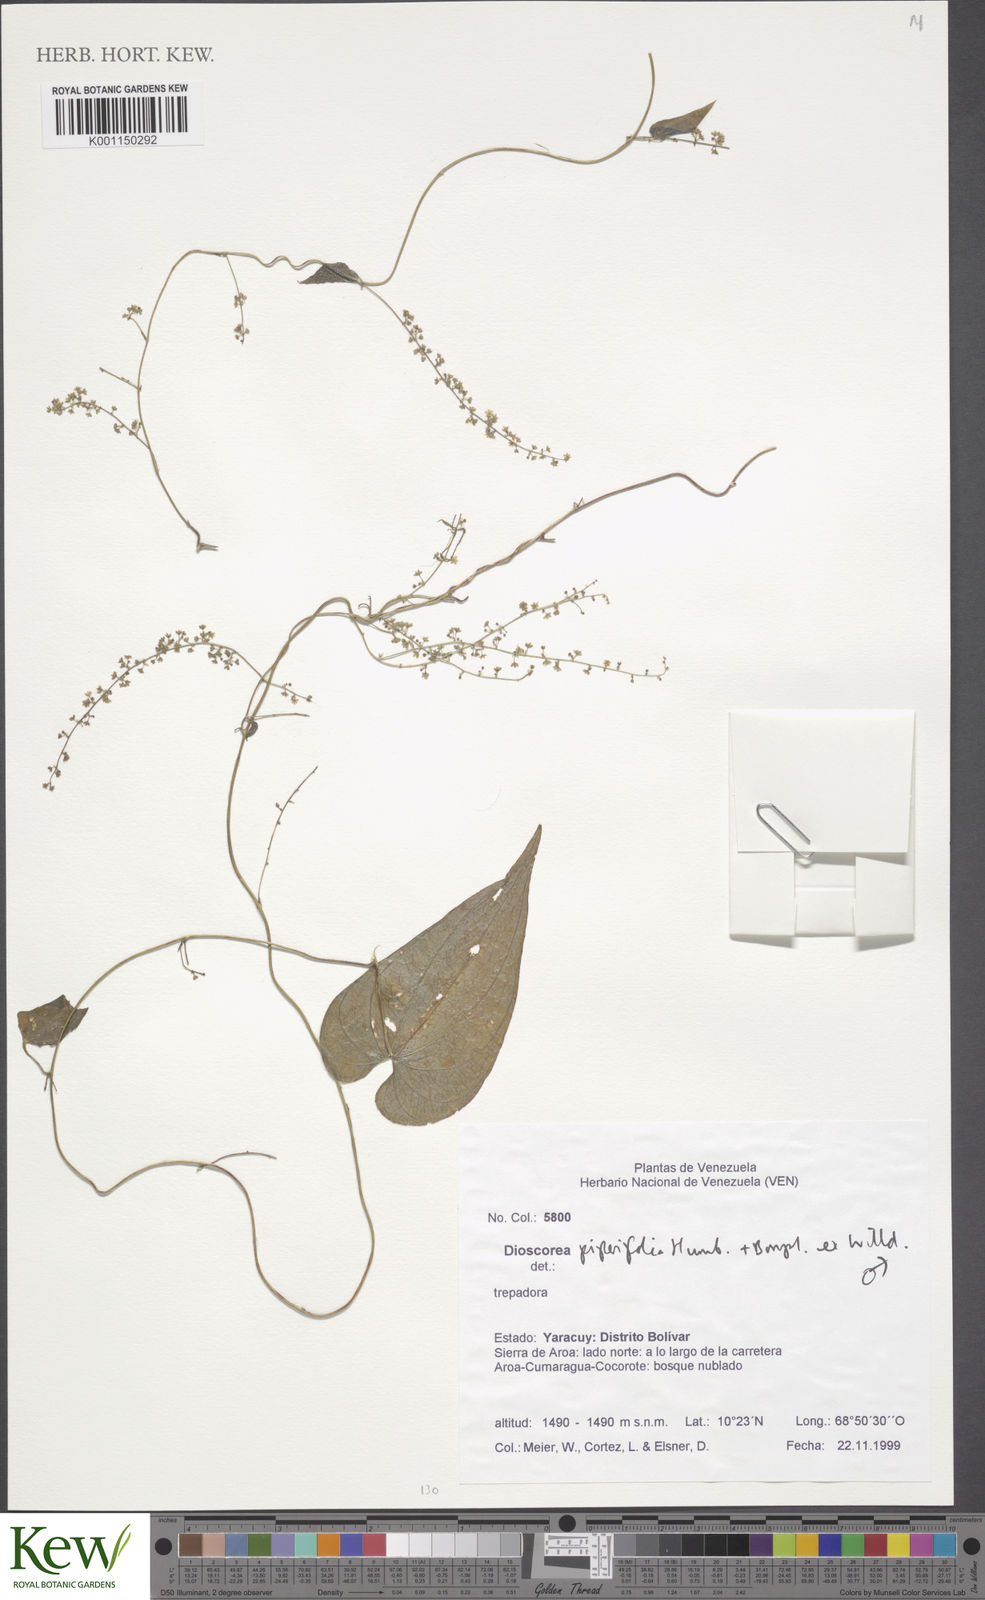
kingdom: Plantae
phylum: Tracheophyta
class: Liliopsida
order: Dioscoreales
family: Dioscoreaceae
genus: Dioscorea
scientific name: Dioscorea piperifolia
